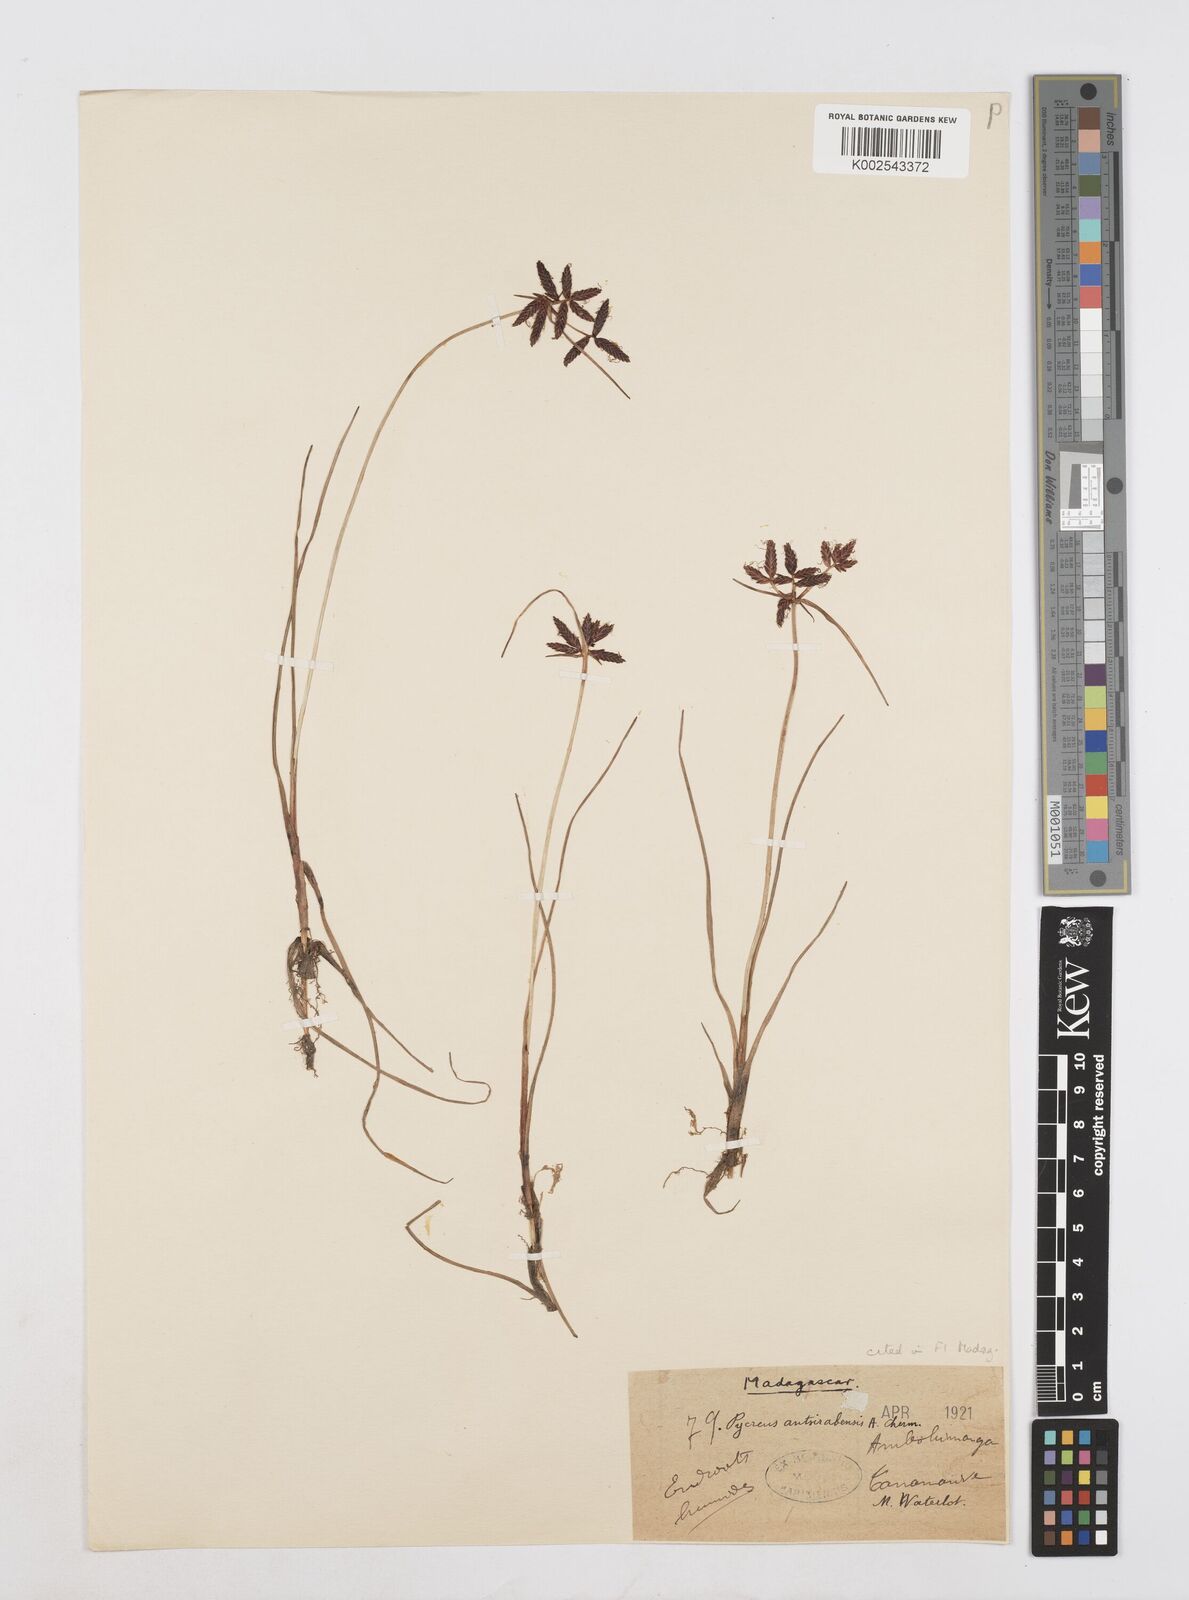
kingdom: Plantae
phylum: Tracheophyta
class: Liliopsida
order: Poales
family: Cyperaceae
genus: Cyperus
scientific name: Cyperus nitidus
